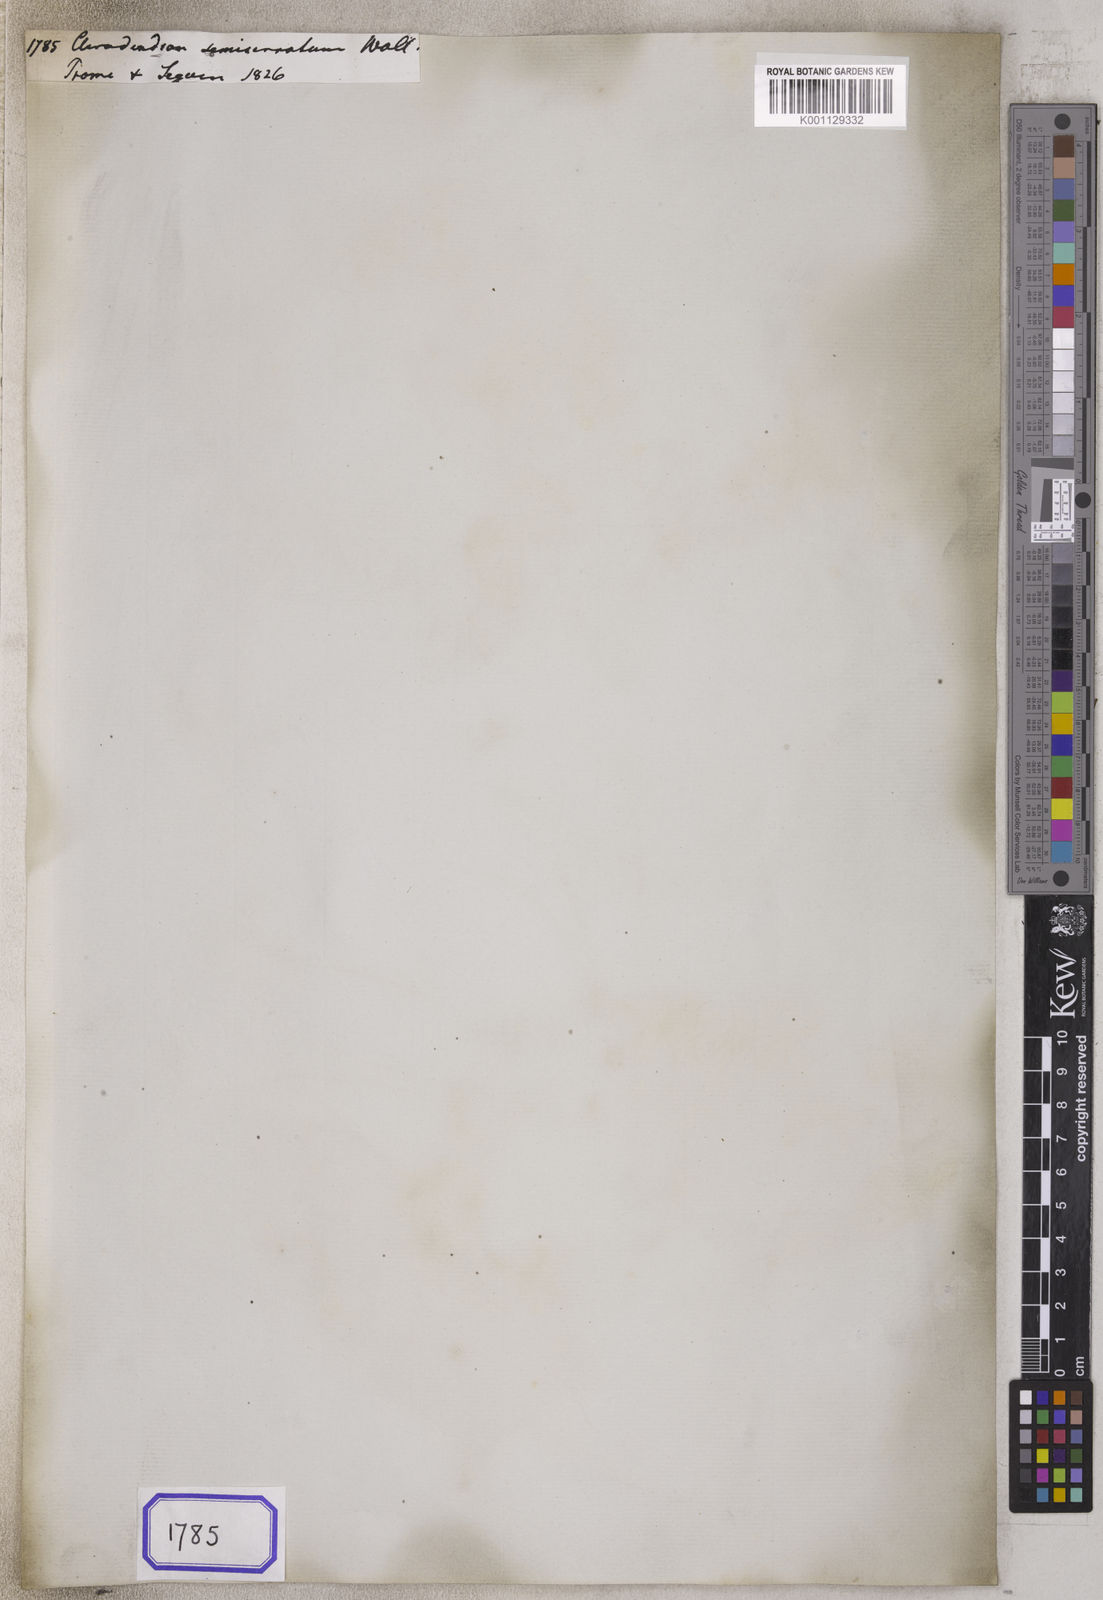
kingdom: Plantae
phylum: Tracheophyta
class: Magnoliopsida
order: Lamiales
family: Lamiaceae
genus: Clerodendrum
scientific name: Clerodendrum indicum
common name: Turk's turbin
